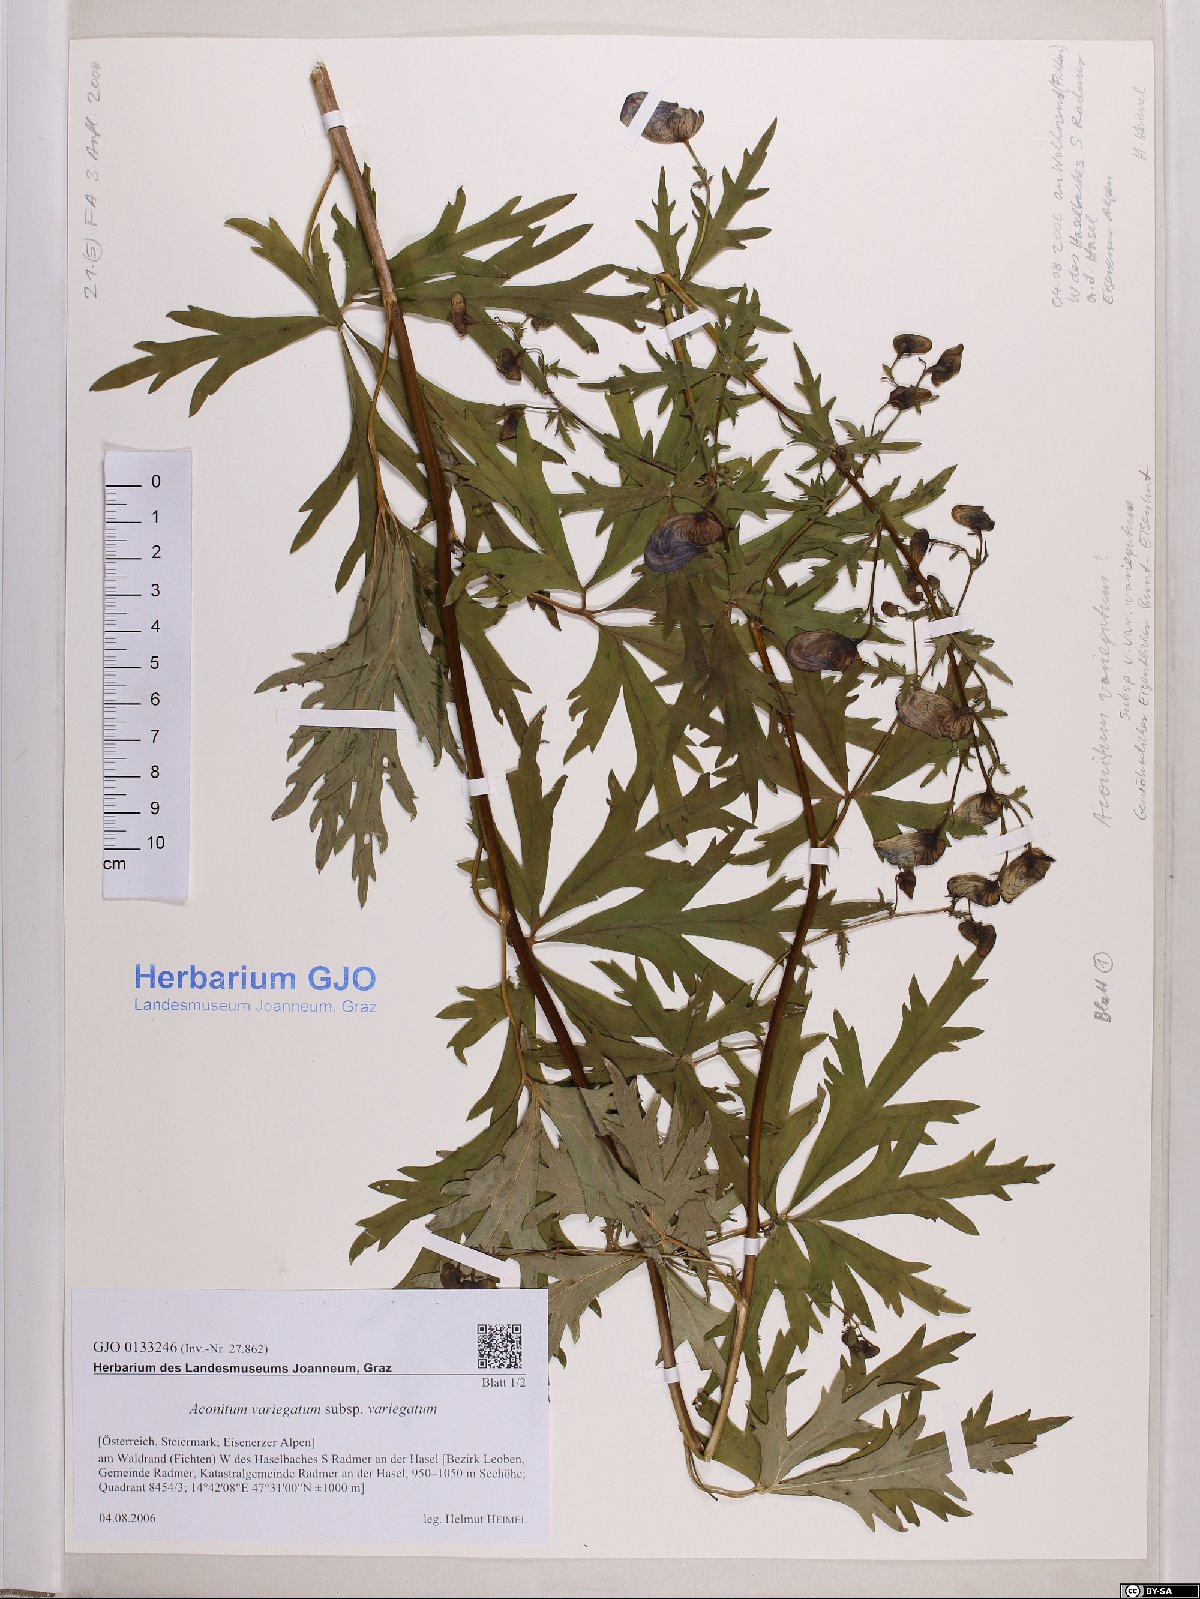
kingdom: Plantae
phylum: Tracheophyta
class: Magnoliopsida
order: Ranunculales
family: Ranunculaceae
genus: Aconitum
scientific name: Aconitum variegatum
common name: Manchurian monkshood
